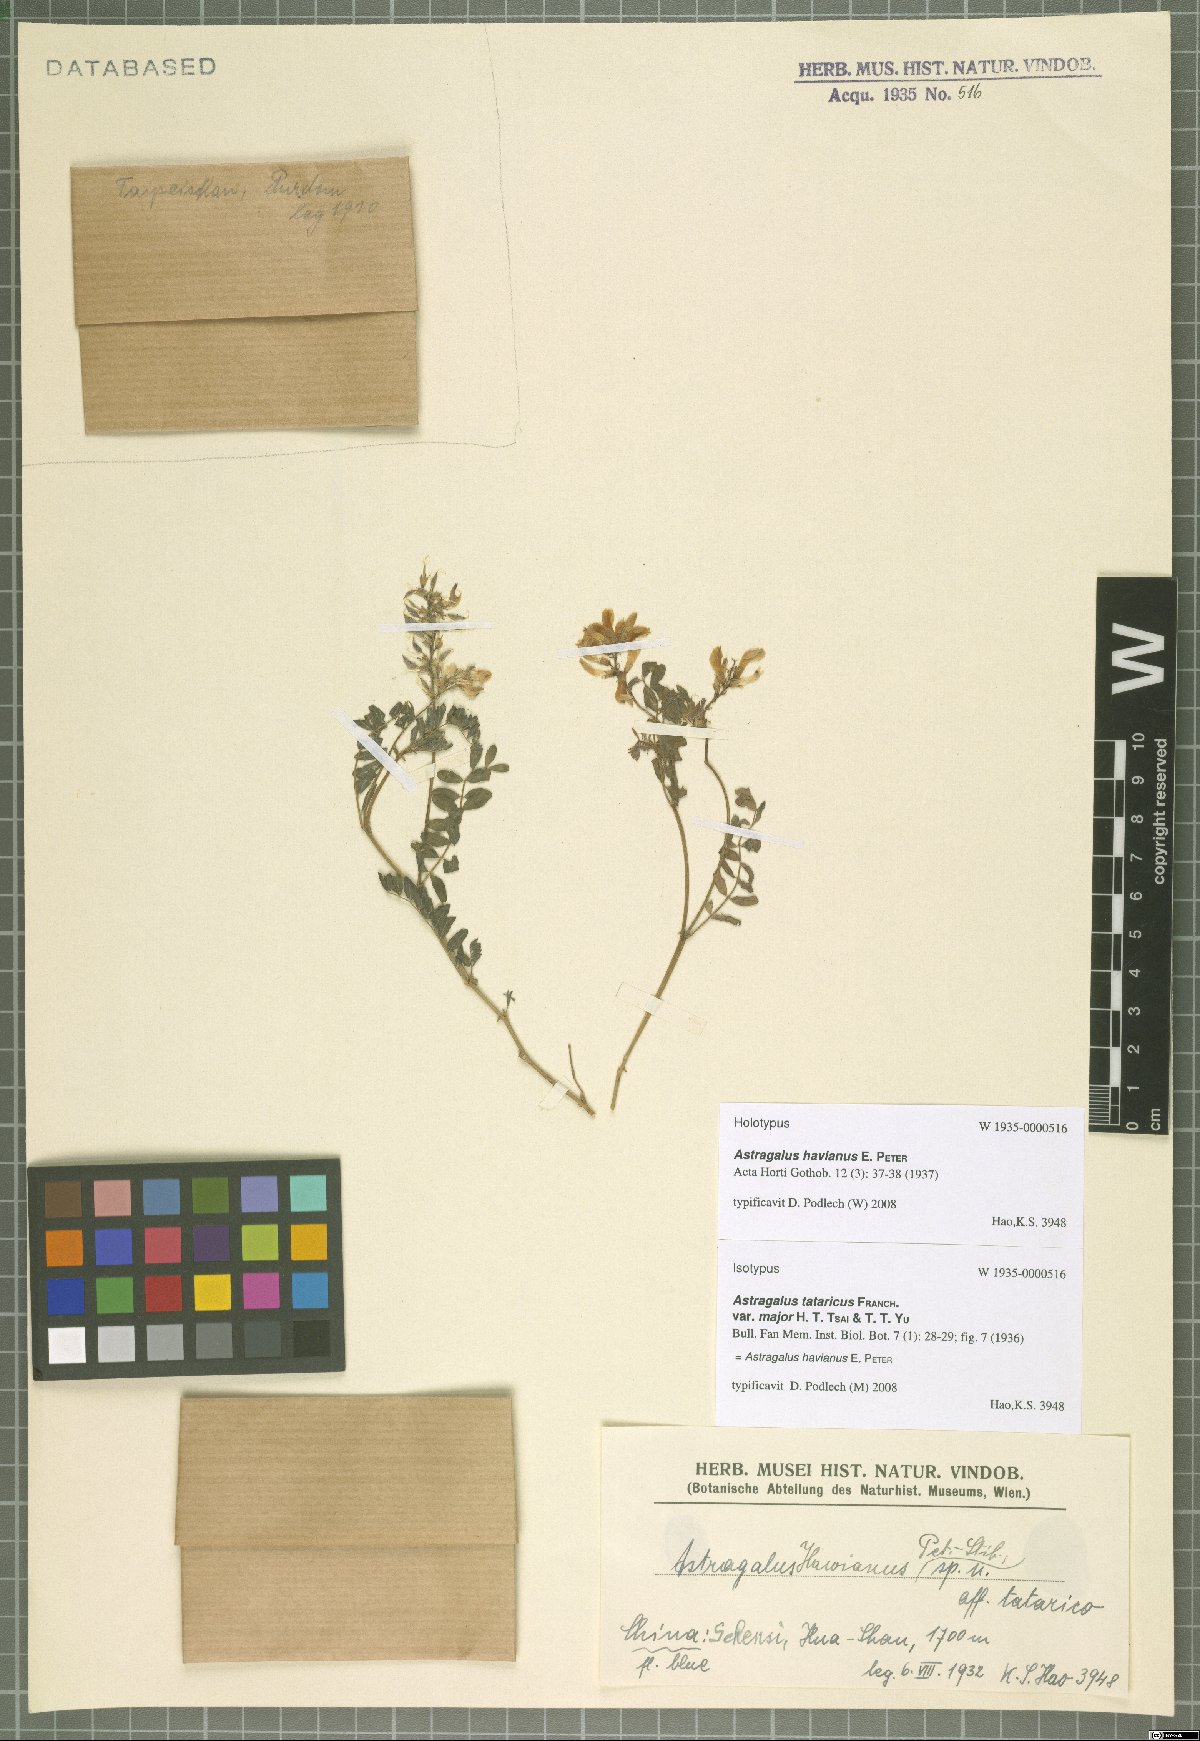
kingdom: Plantae
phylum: Tracheophyta
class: Magnoliopsida
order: Fabales
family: Fabaceae
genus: Astragalus
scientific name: Astragalus havianus
